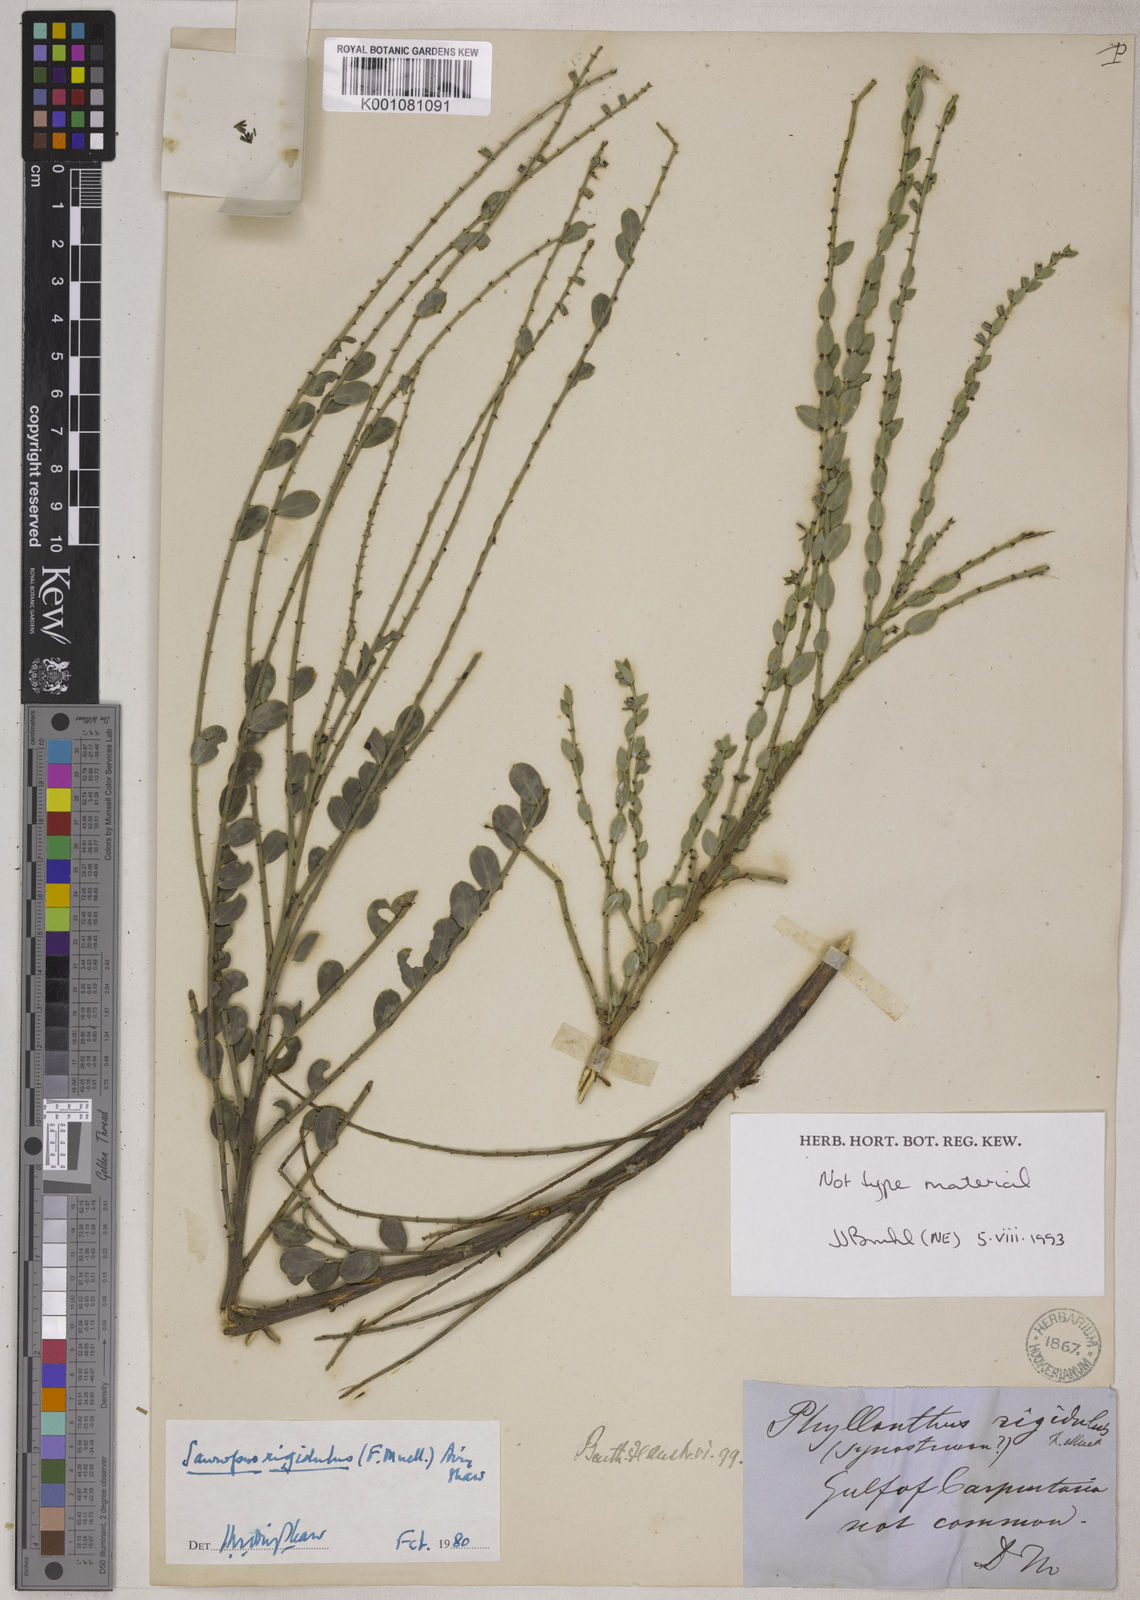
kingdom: Animalia
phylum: Chordata
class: Amphibia
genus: Sauropus
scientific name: Sauropus
